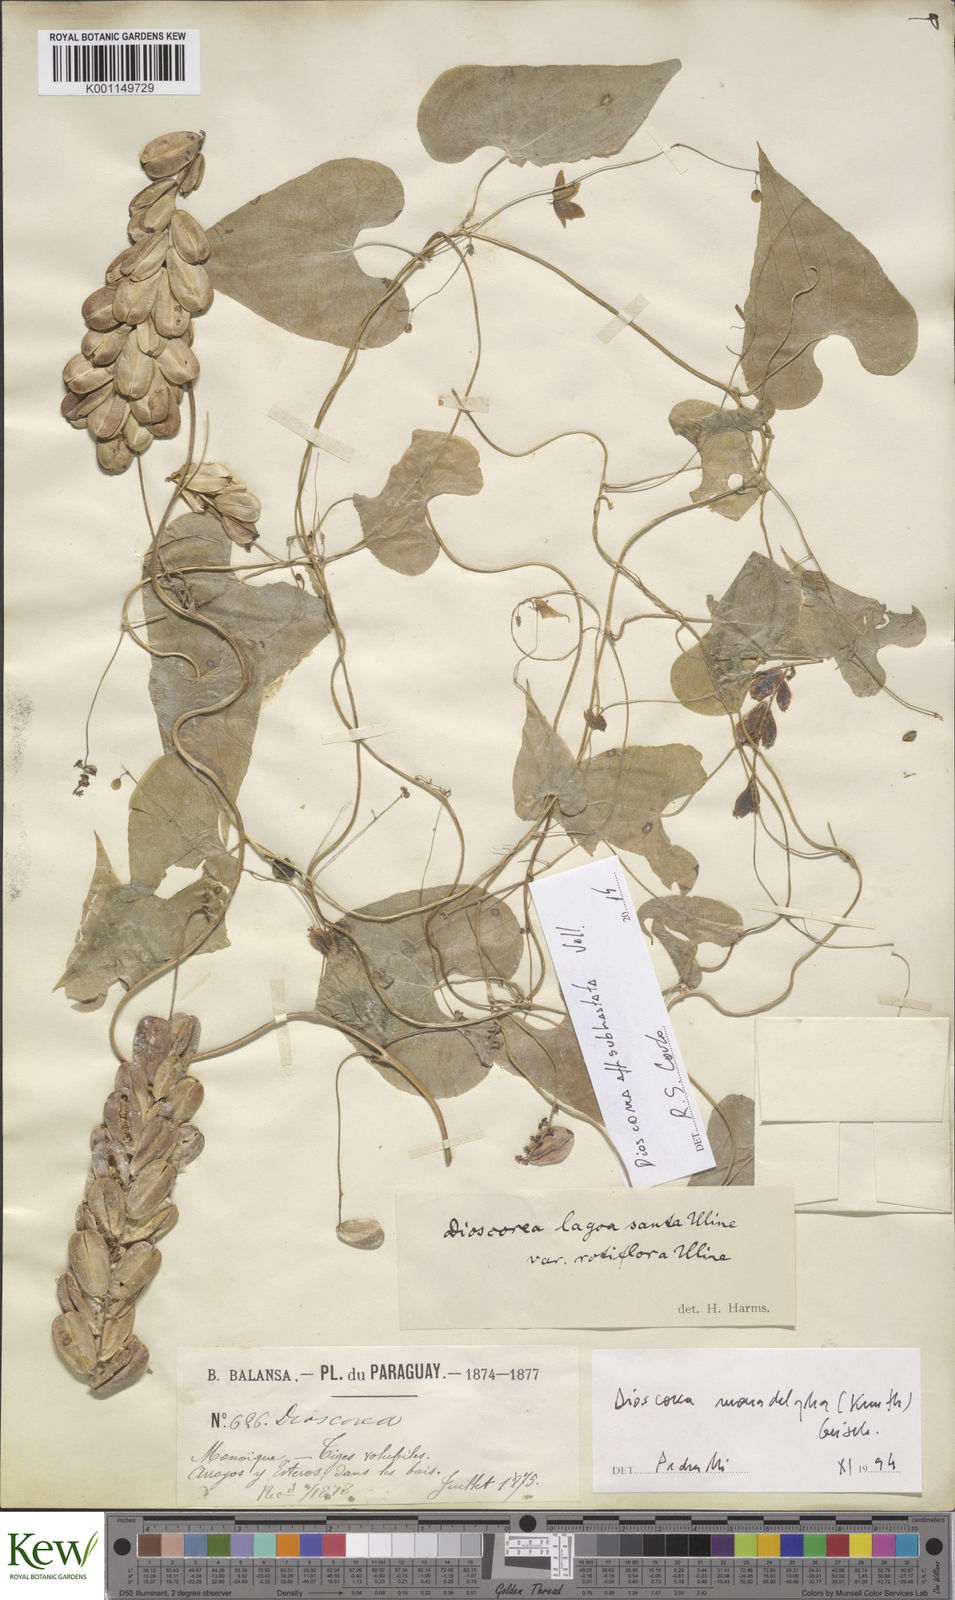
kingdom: Plantae
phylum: Tracheophyta
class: Liliopsida
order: Dioscoreales
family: Dioscoreaceae
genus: Dioscorea
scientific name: Dioscorea subhastata
